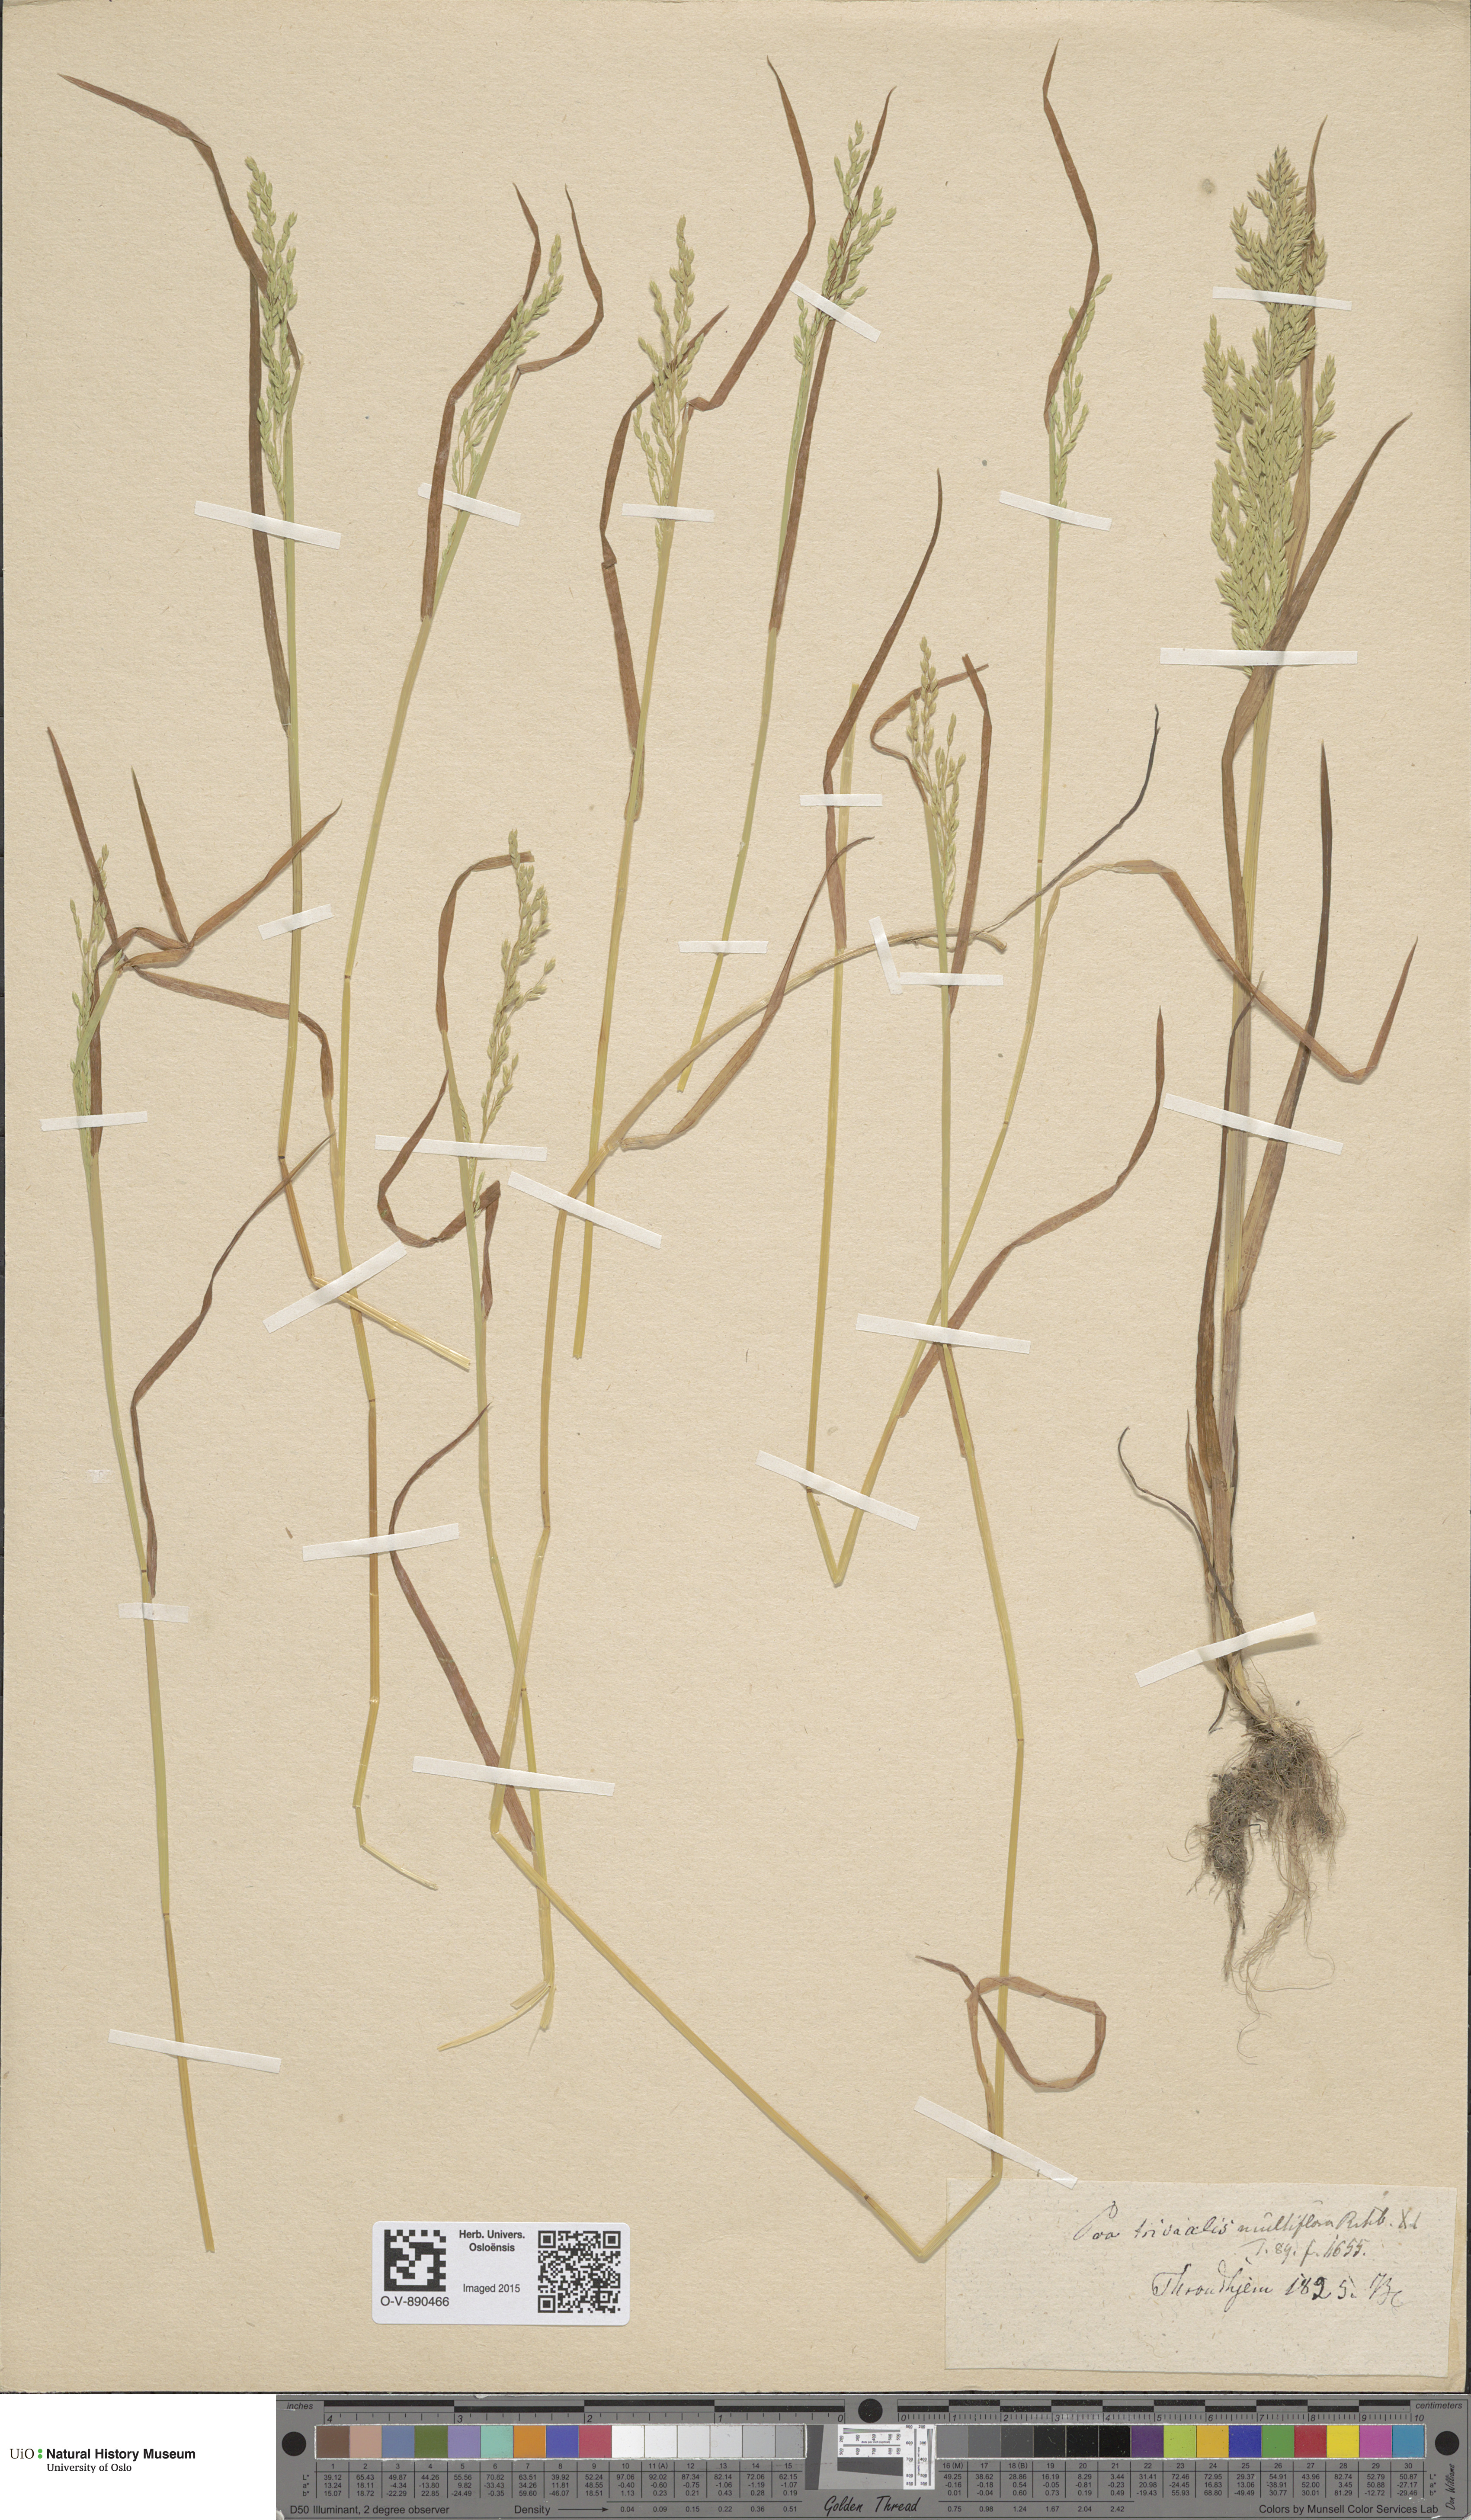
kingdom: Plantae
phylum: Tracheophyta
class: Liliopsida
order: Poales
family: Poaceae
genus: Poa
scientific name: Poa trivialis
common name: Rough bluegrass
